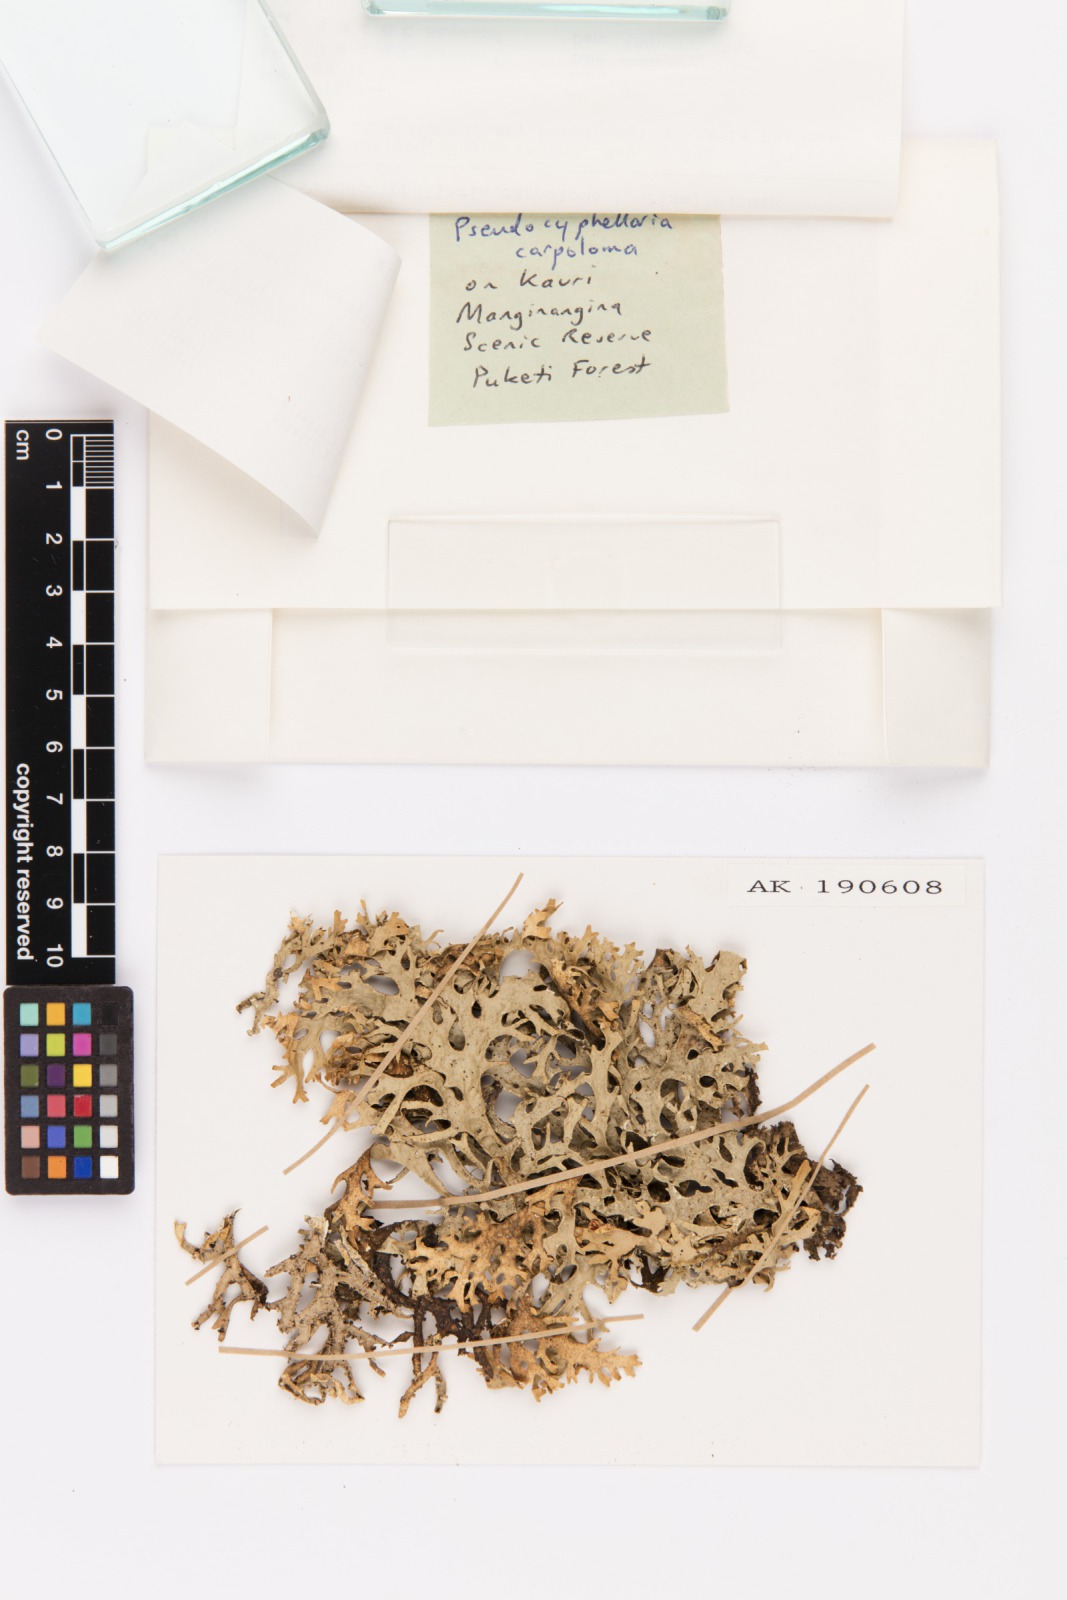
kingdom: Fungi
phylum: Ascomycota
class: Lecanoromycetes
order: Peltigerales
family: Lobariaceae
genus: Pseudocyphellaria
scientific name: Pseudocyphellaria carpoloma
